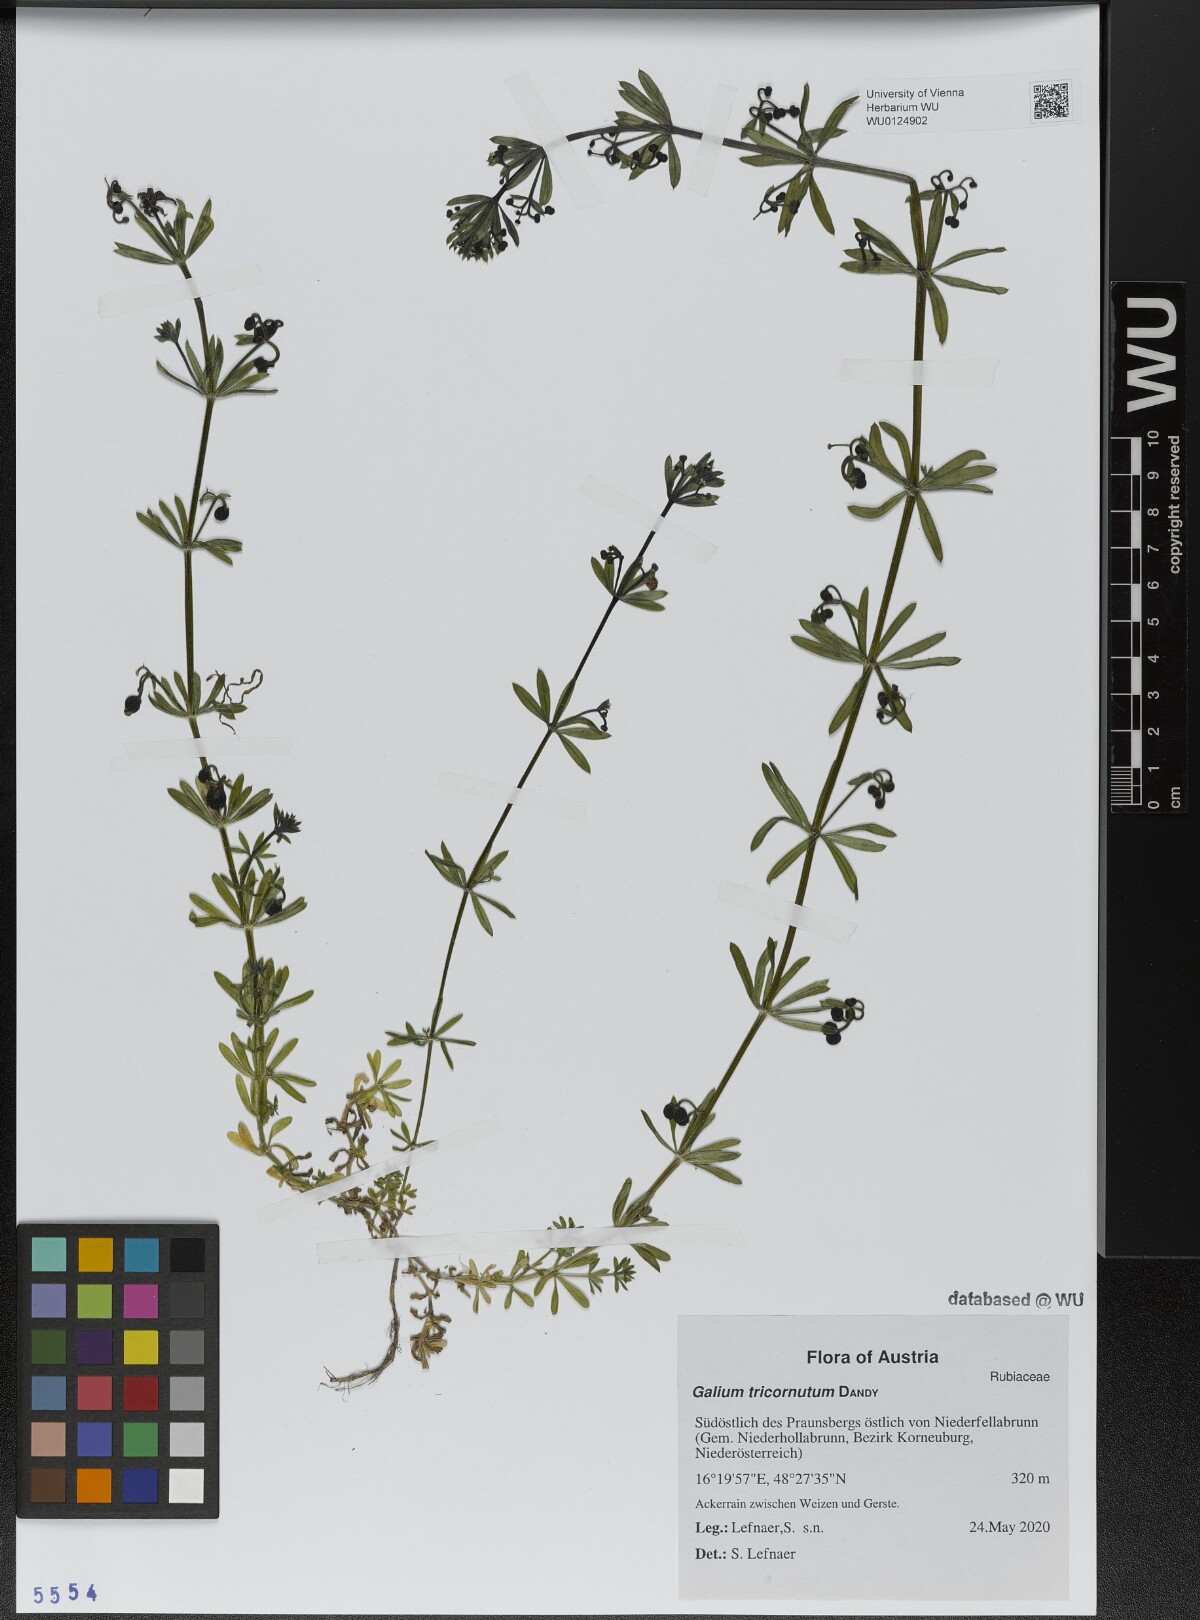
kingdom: Plantae
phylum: Tracheophyta
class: Magnoliopsida
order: Gentianales
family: Rubiaceae
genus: Galium
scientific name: Galium tricornutum
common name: Corn cleavers
